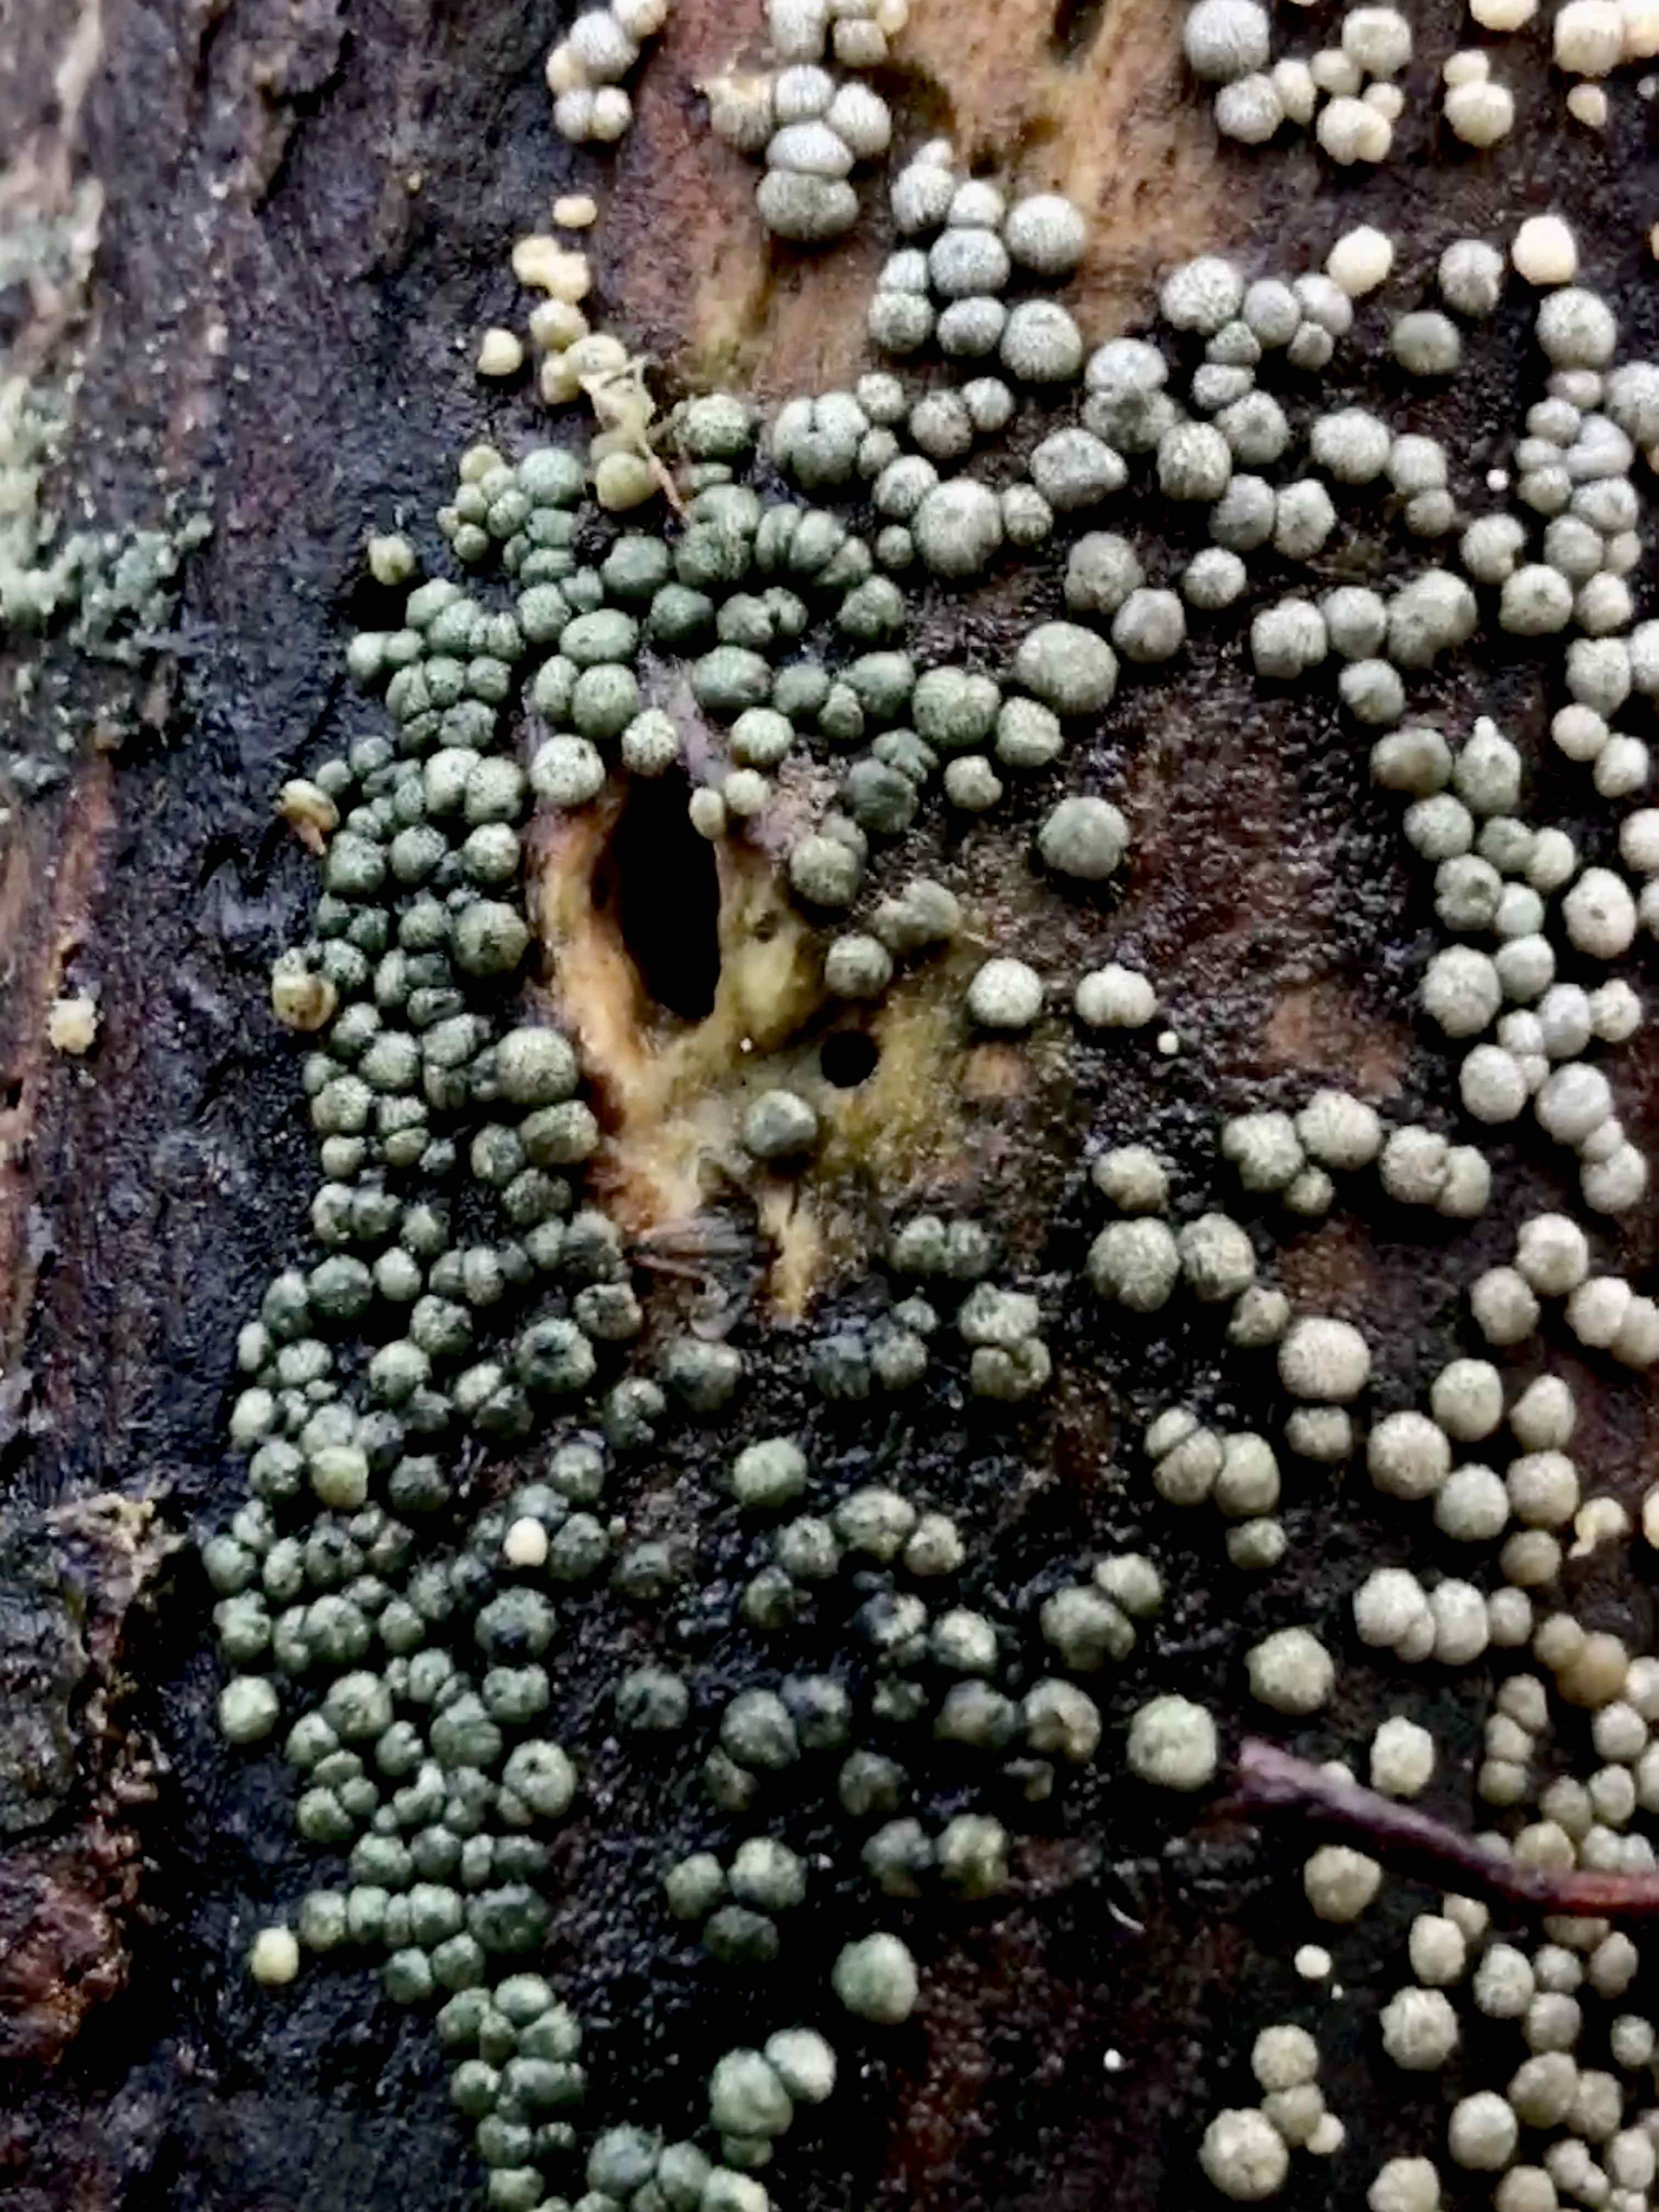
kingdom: Fungi
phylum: Ascomycota
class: Sordariomycetes
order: Hypocreales
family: Hypocreaceae
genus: Trichoderma
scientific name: Trichoderma strictipile
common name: grønprikket kødkerne
